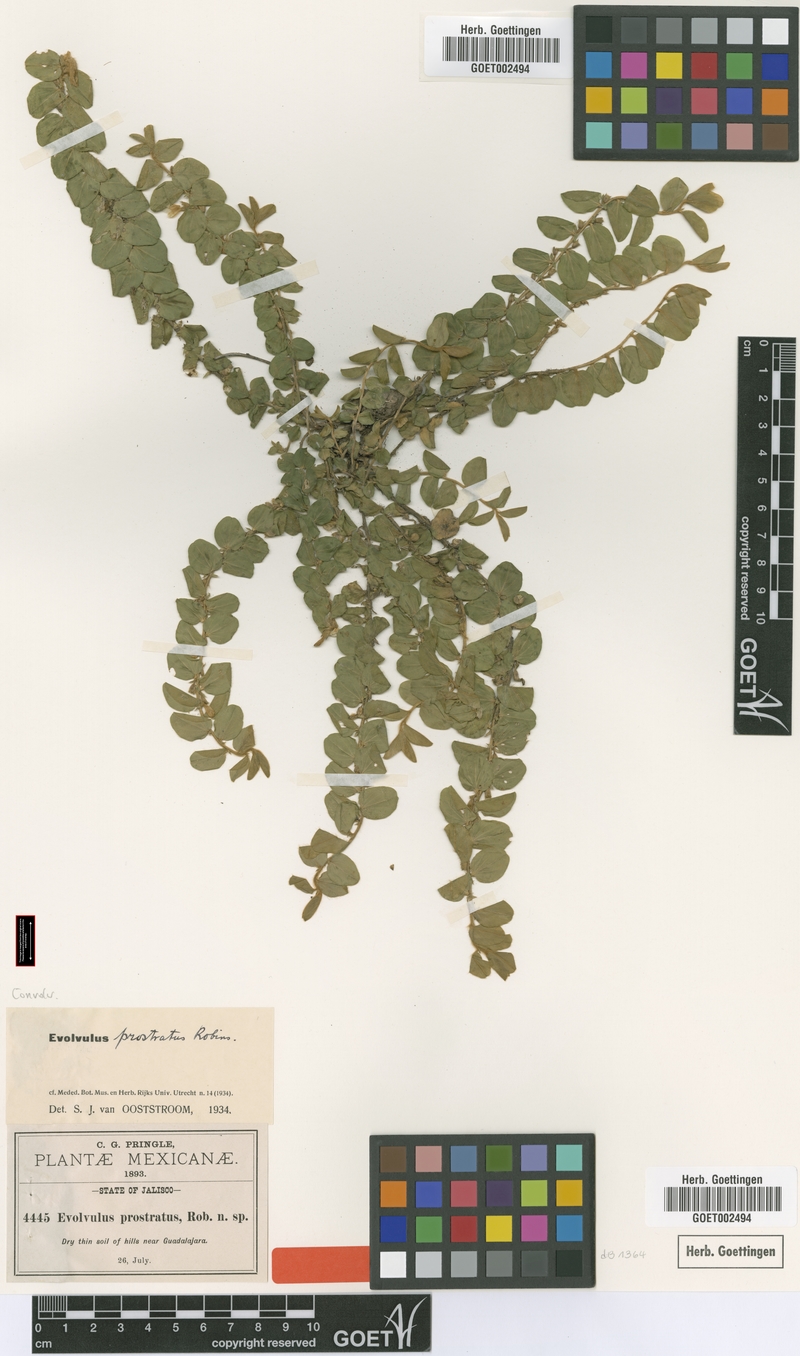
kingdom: Plantae
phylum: Tracheophyta
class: Magnoliopsida
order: Solanales
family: Convolvulaceae
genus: Evolvulus
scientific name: Evolvulus prostratus
